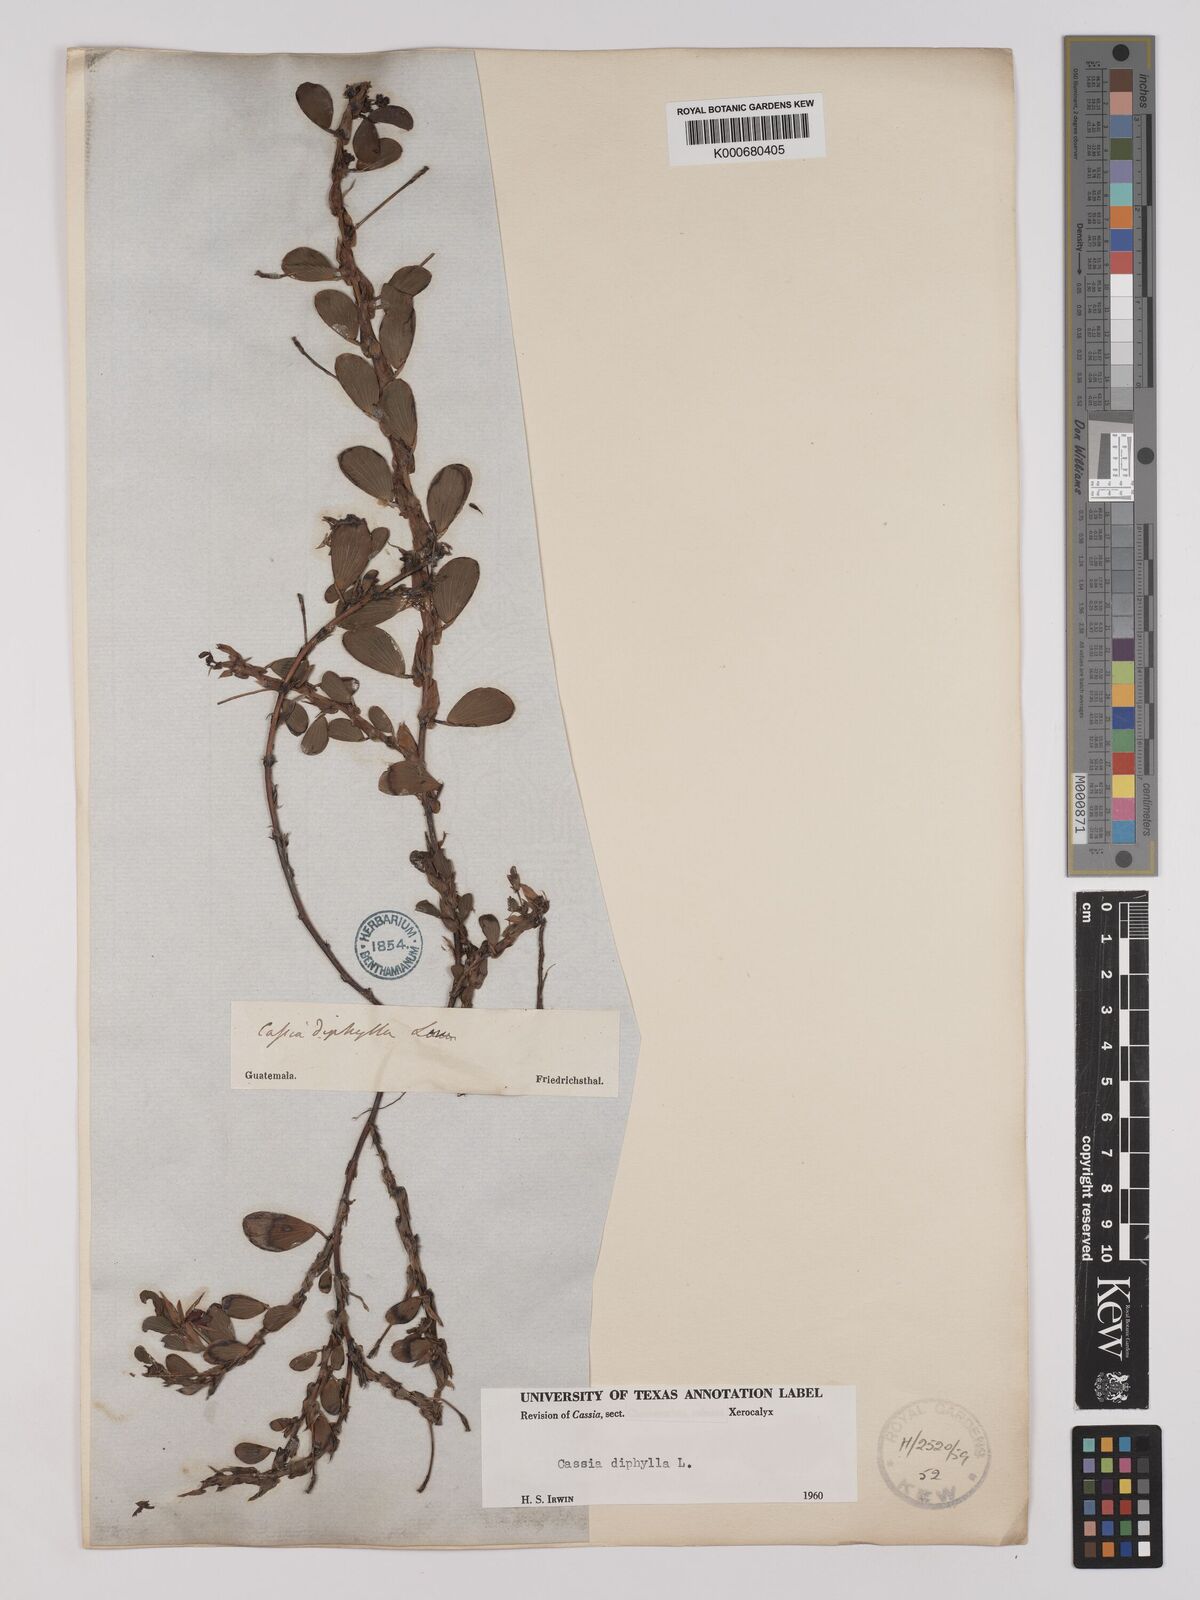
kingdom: Plantae
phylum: Tracheophyta
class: Magnoliopsida
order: Fabales
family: Fabaceae
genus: Chamaecrista
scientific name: Chamaecrista diphylla
